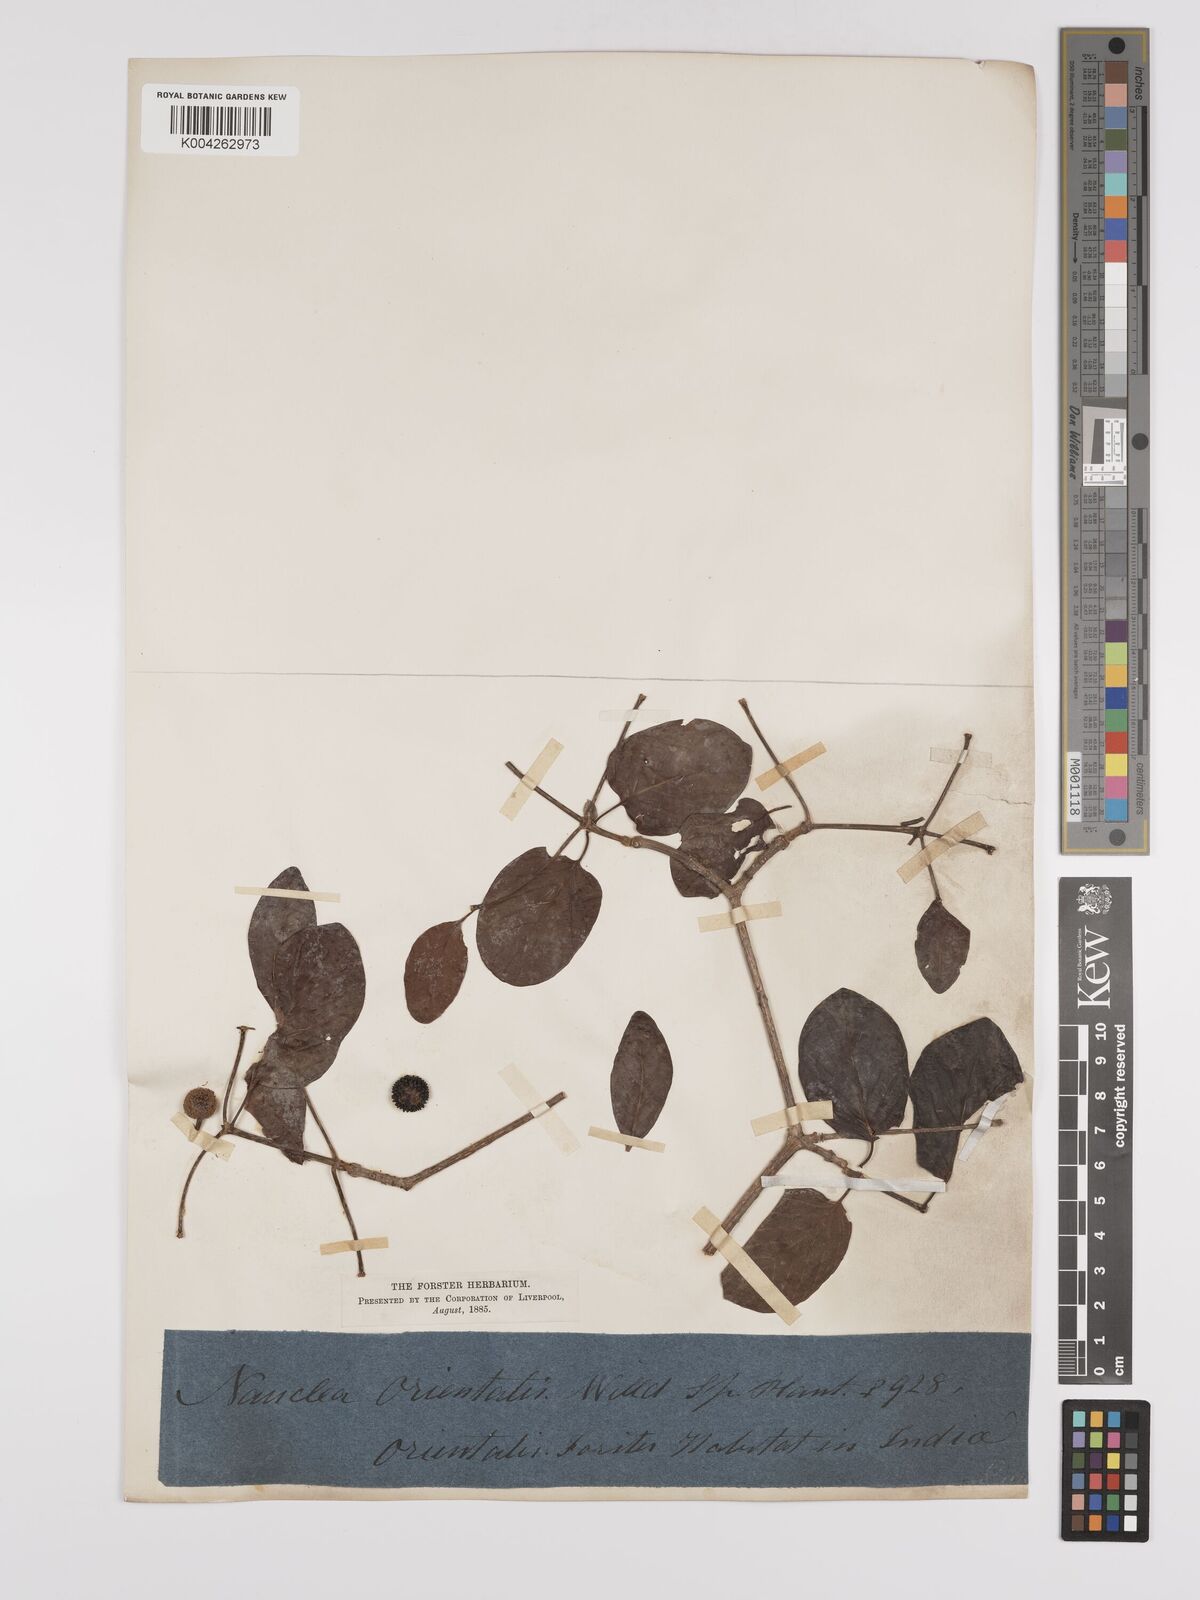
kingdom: Plantae
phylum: Tracheophyta
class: Magnoliopsida
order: Gentianales
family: Rubiaceae
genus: Mitragyna
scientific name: Mitragyna parvifolia
